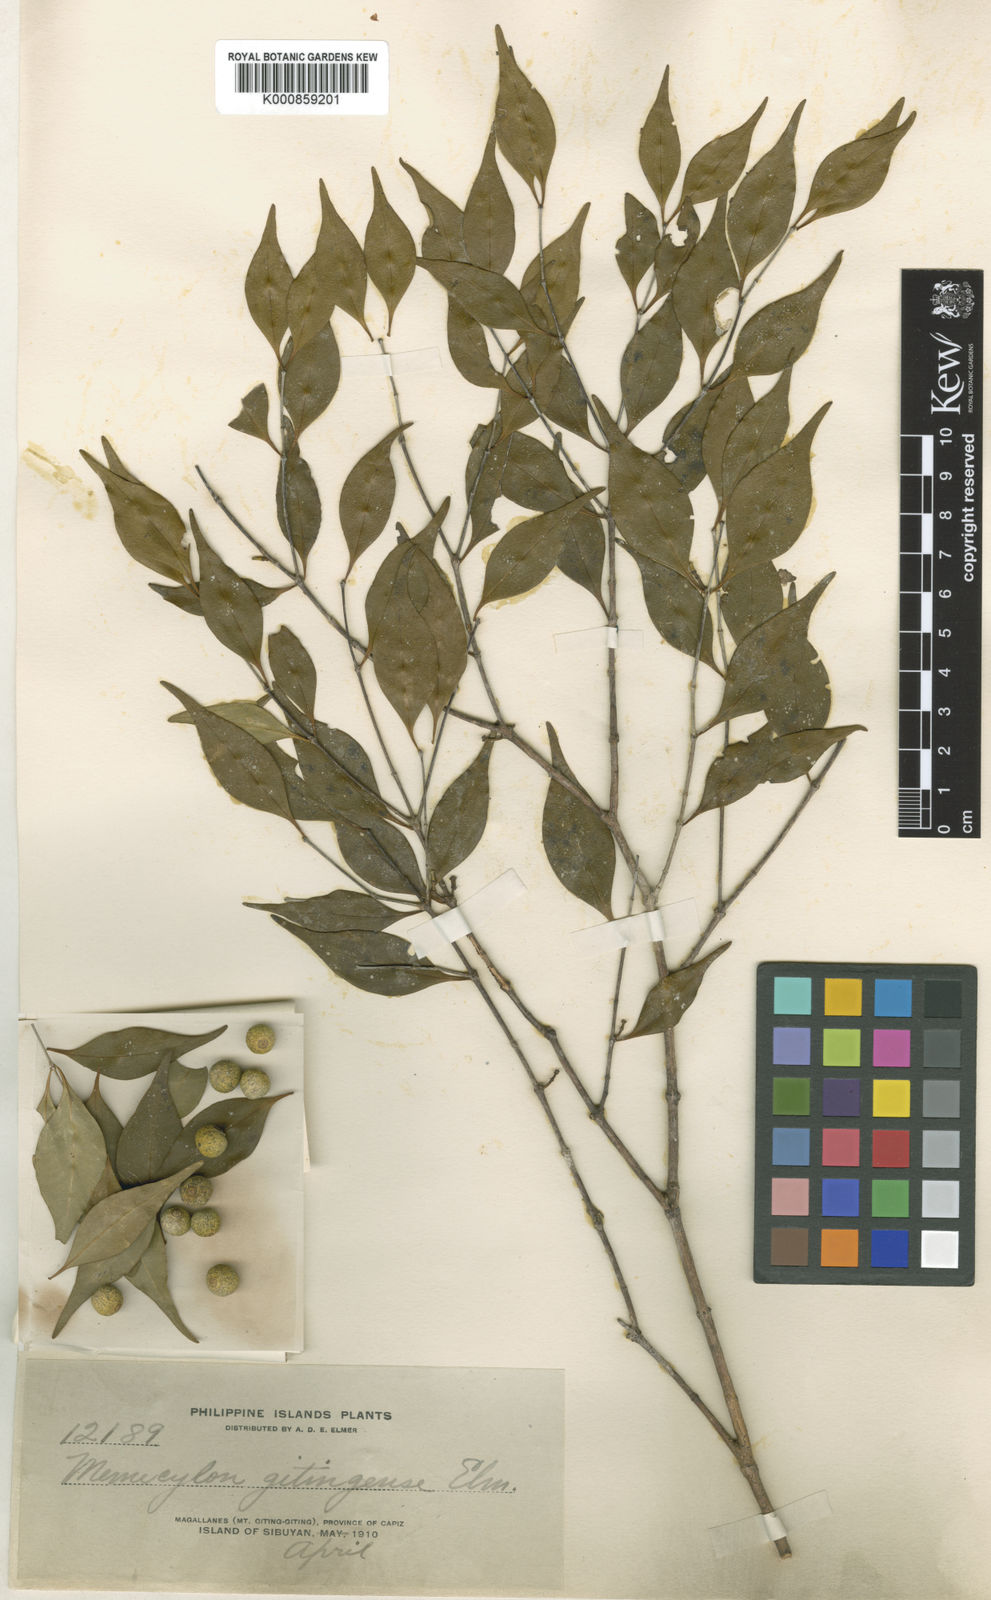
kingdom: Plantae
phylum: Tracheophyta
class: Magnoliopsida
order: Myrtales
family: Melastomataceae
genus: Memecylon
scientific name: Memecylon gitingense
